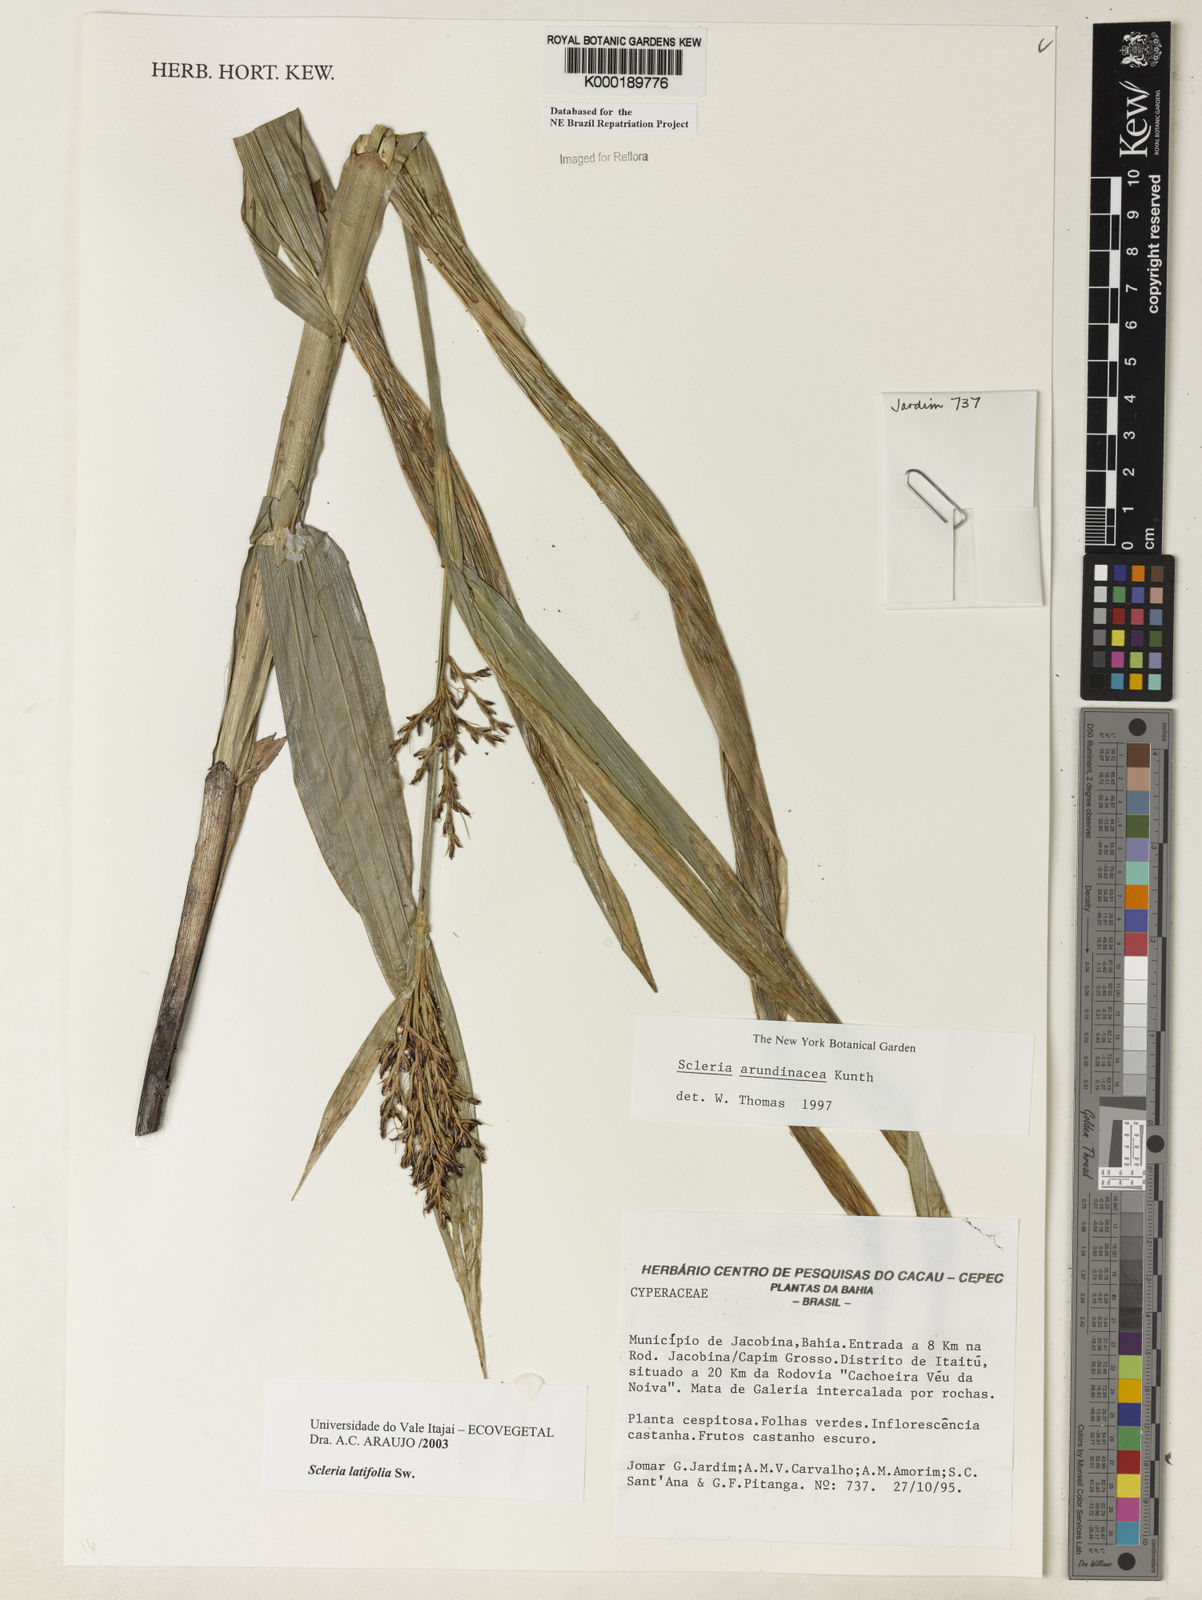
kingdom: Plantae
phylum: Tracheophyta
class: Liliopsida
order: Poales
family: Cyperaceae
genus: Scleria
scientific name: Scleria latifolia
